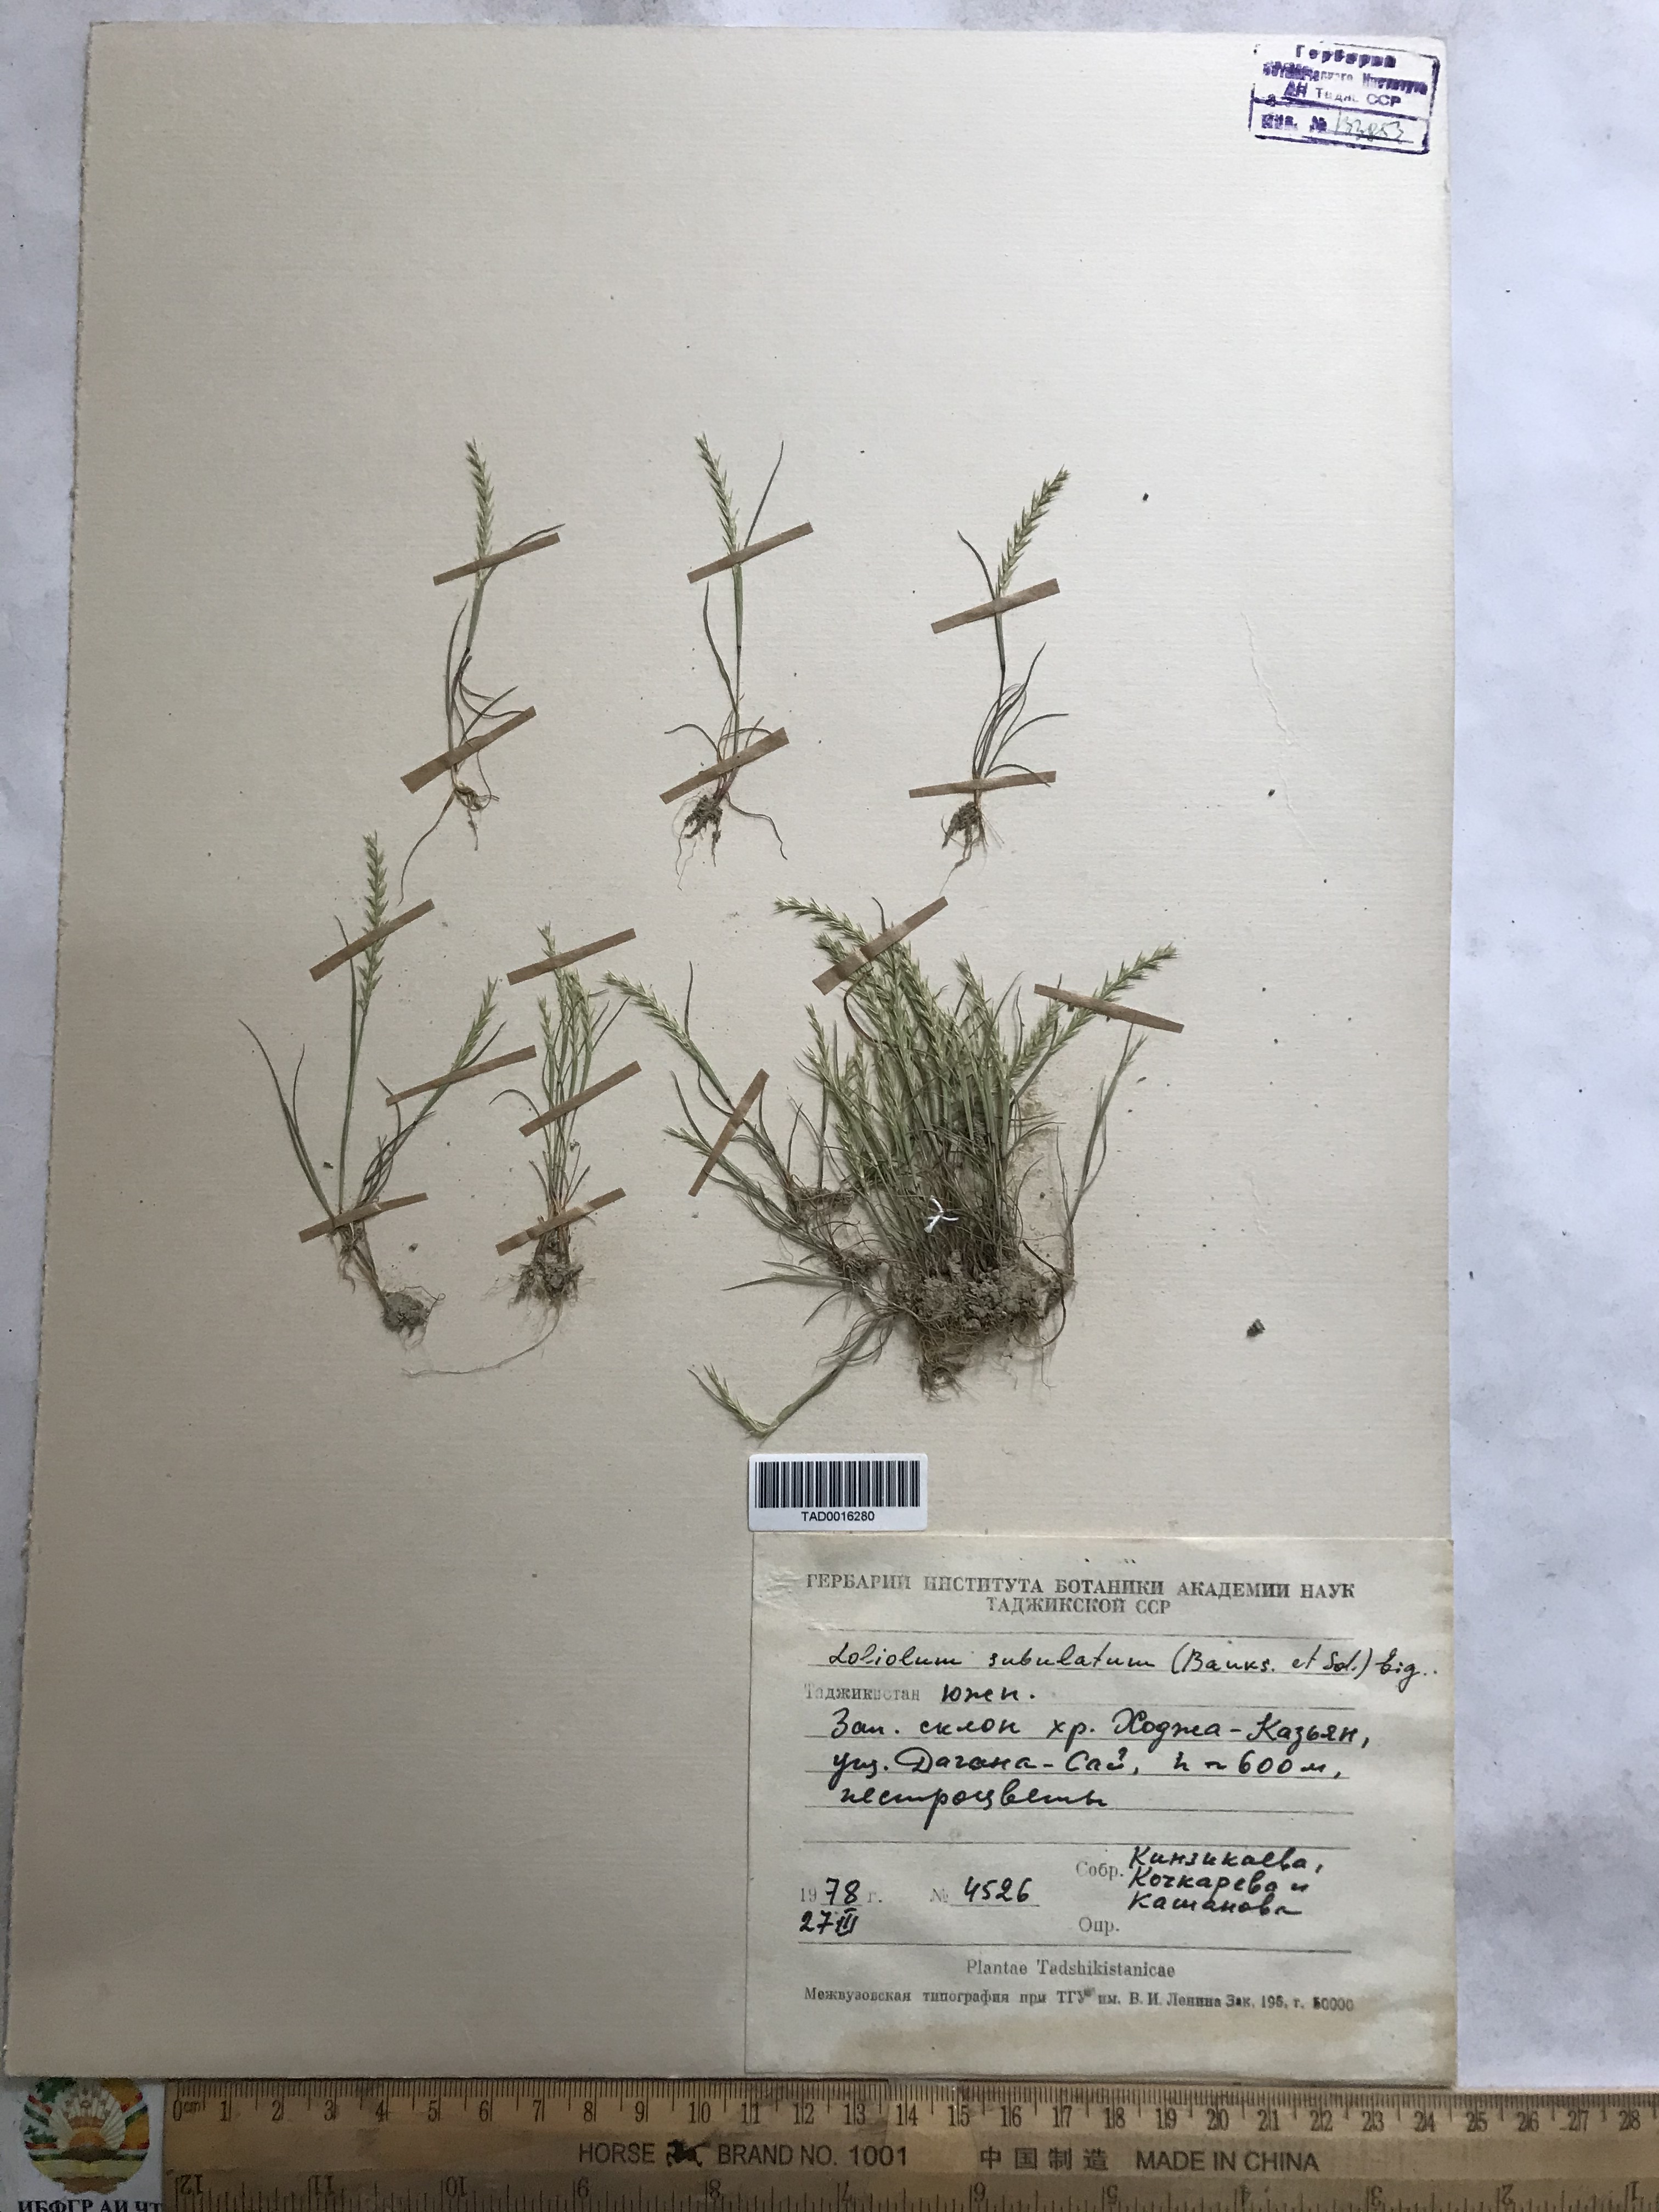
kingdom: Plantae
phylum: Tracheophyta
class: Liliopsida
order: Poales
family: Poaceae
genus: Festuca
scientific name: Festuca orientalis
